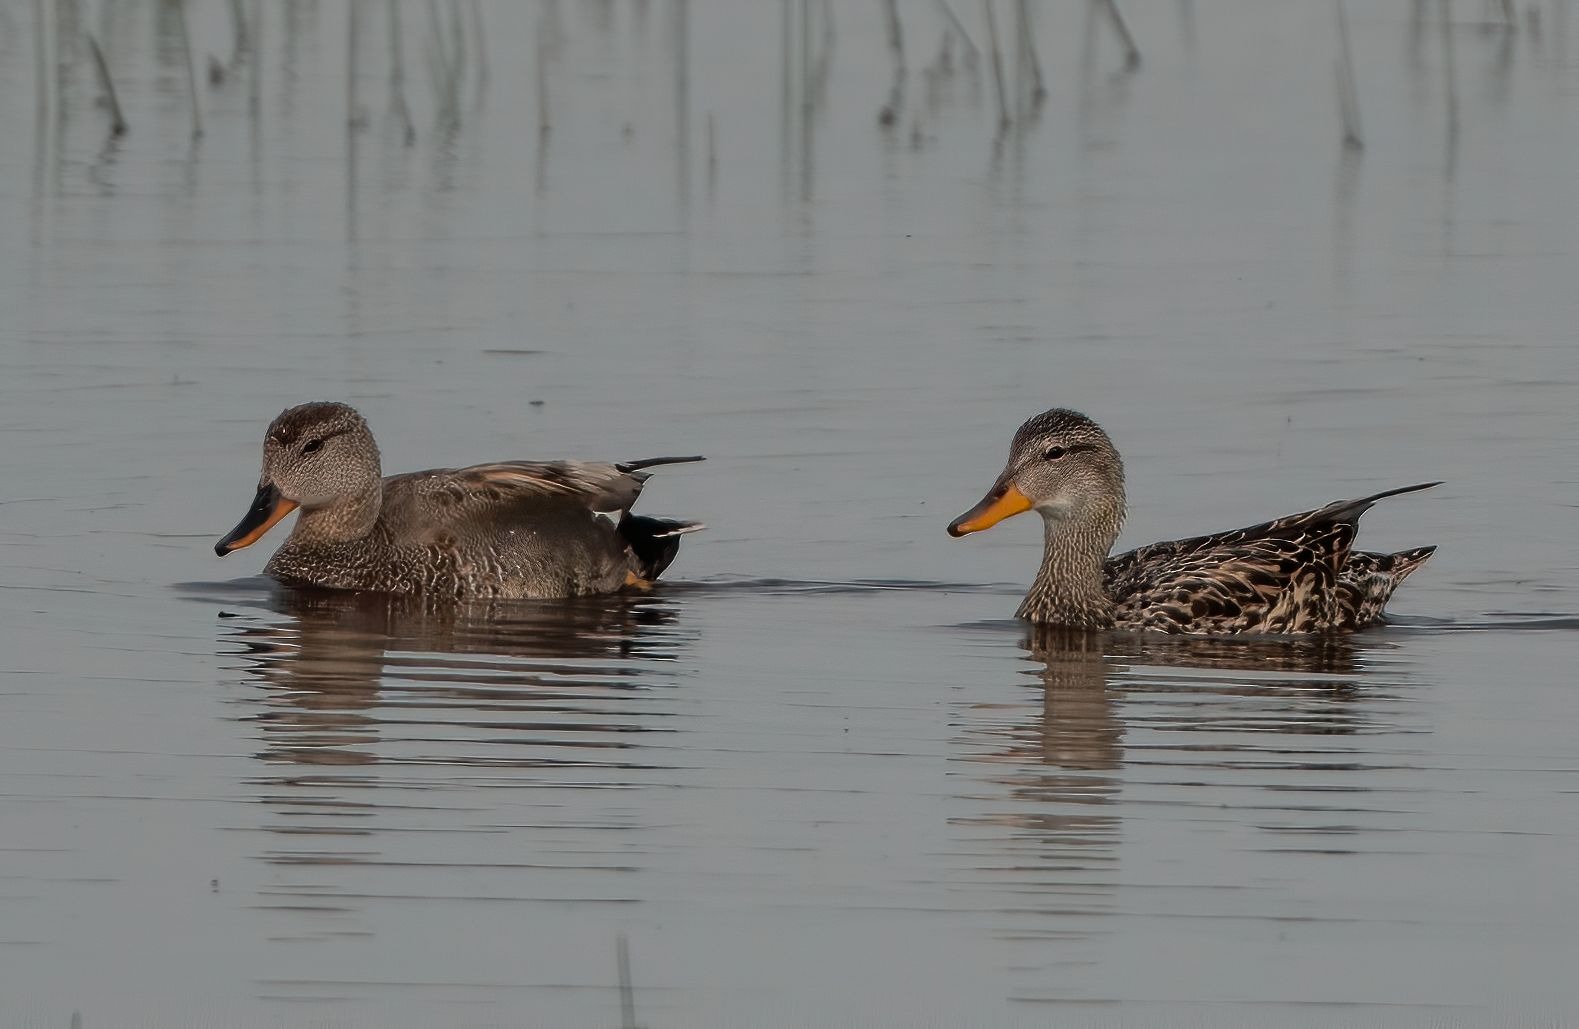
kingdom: Animalia
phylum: Chordata
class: Aves
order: Anseriformes
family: Anatidae
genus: Mareca
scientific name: Mareca strepera
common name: Knarand
